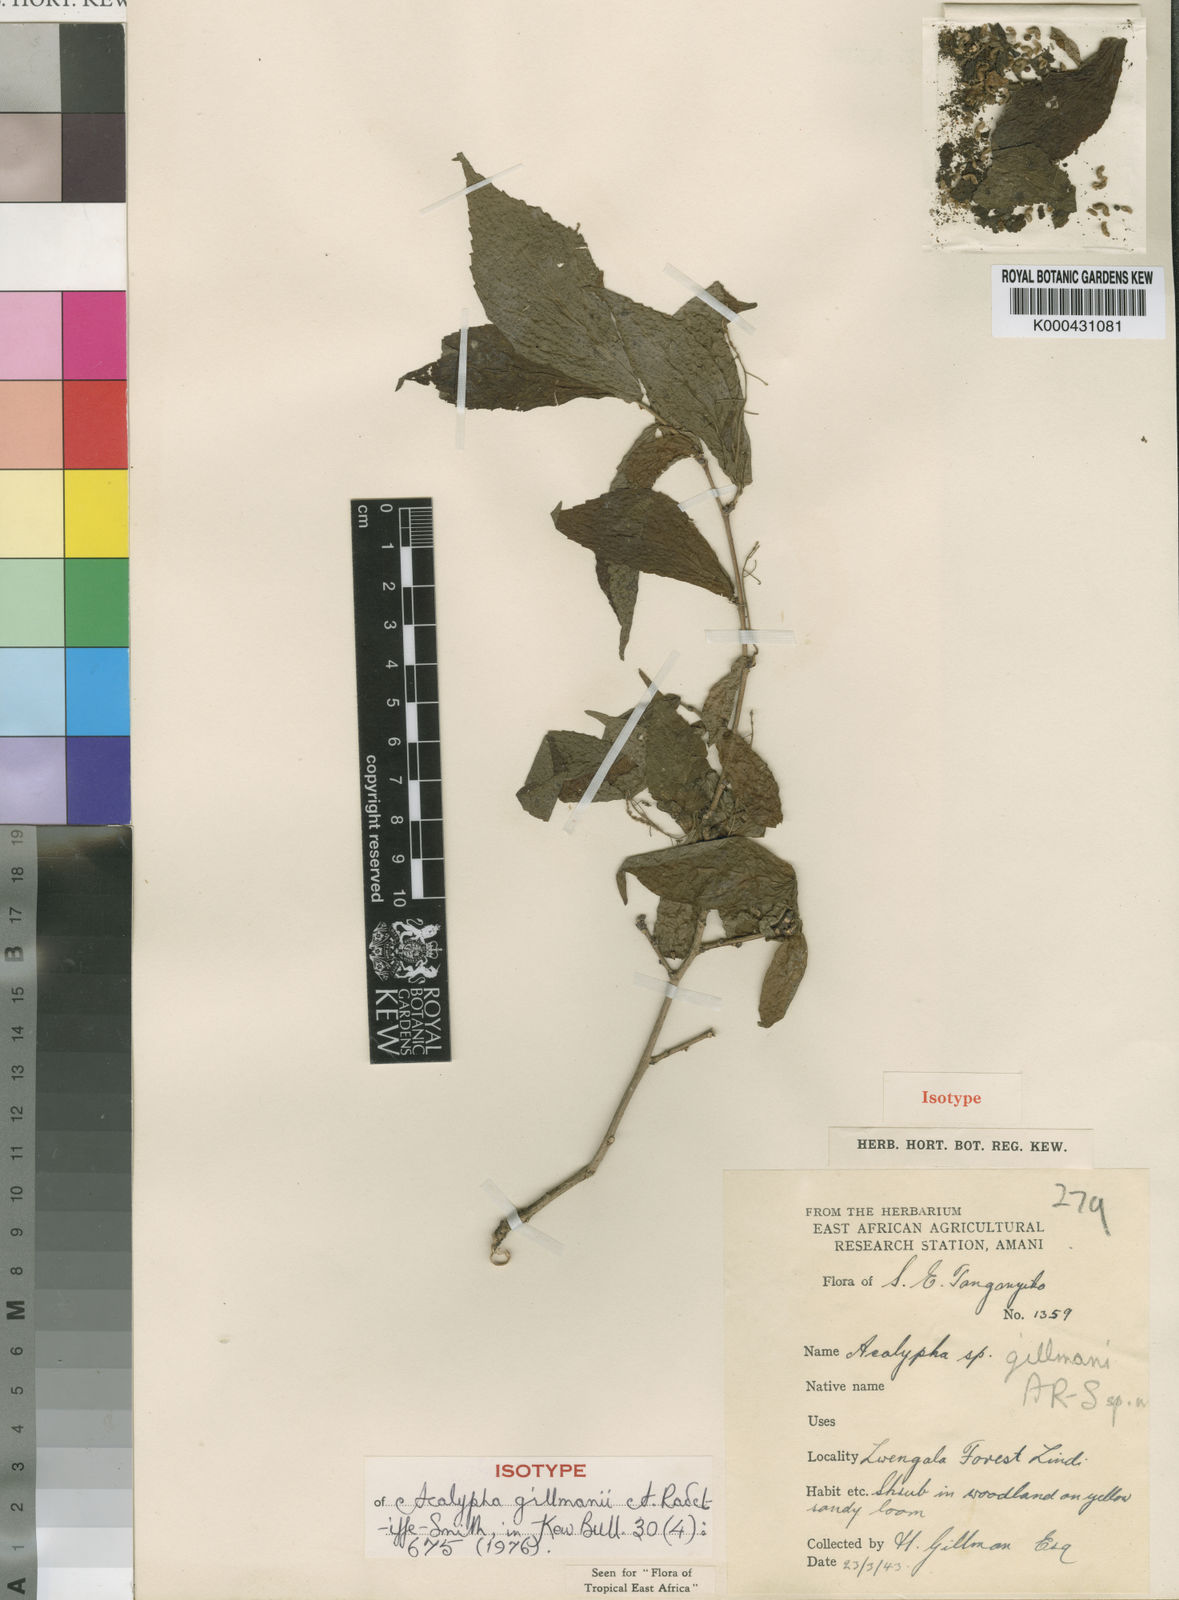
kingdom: Plantae
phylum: Tracheophyta
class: Magnoliopsida
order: Malpighiales
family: Euphorbiaceae
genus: Acalypha
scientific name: Acalypha gillmanii
